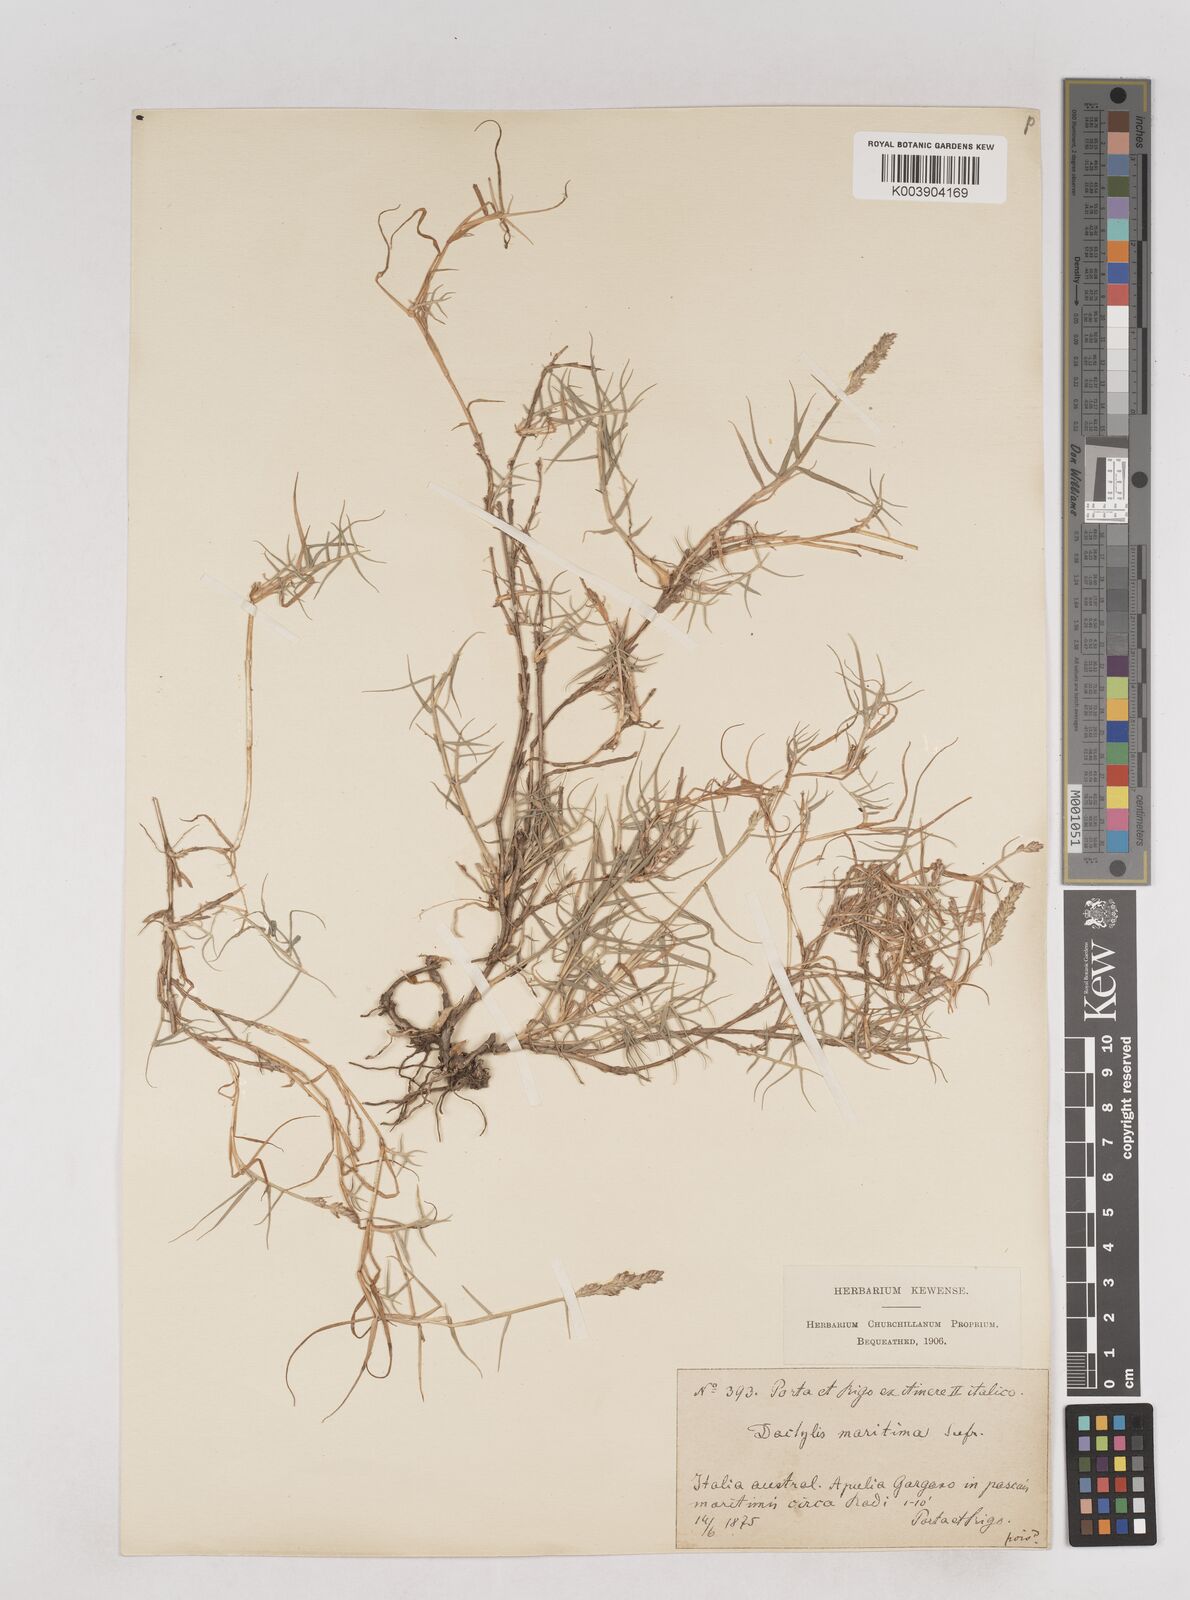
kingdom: Plantae
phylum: Tracheophyta
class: Liliopsida
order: Poales
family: Poaceae
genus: Aeluropus
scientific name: Aeluropus littoralis
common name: Indian walnut
